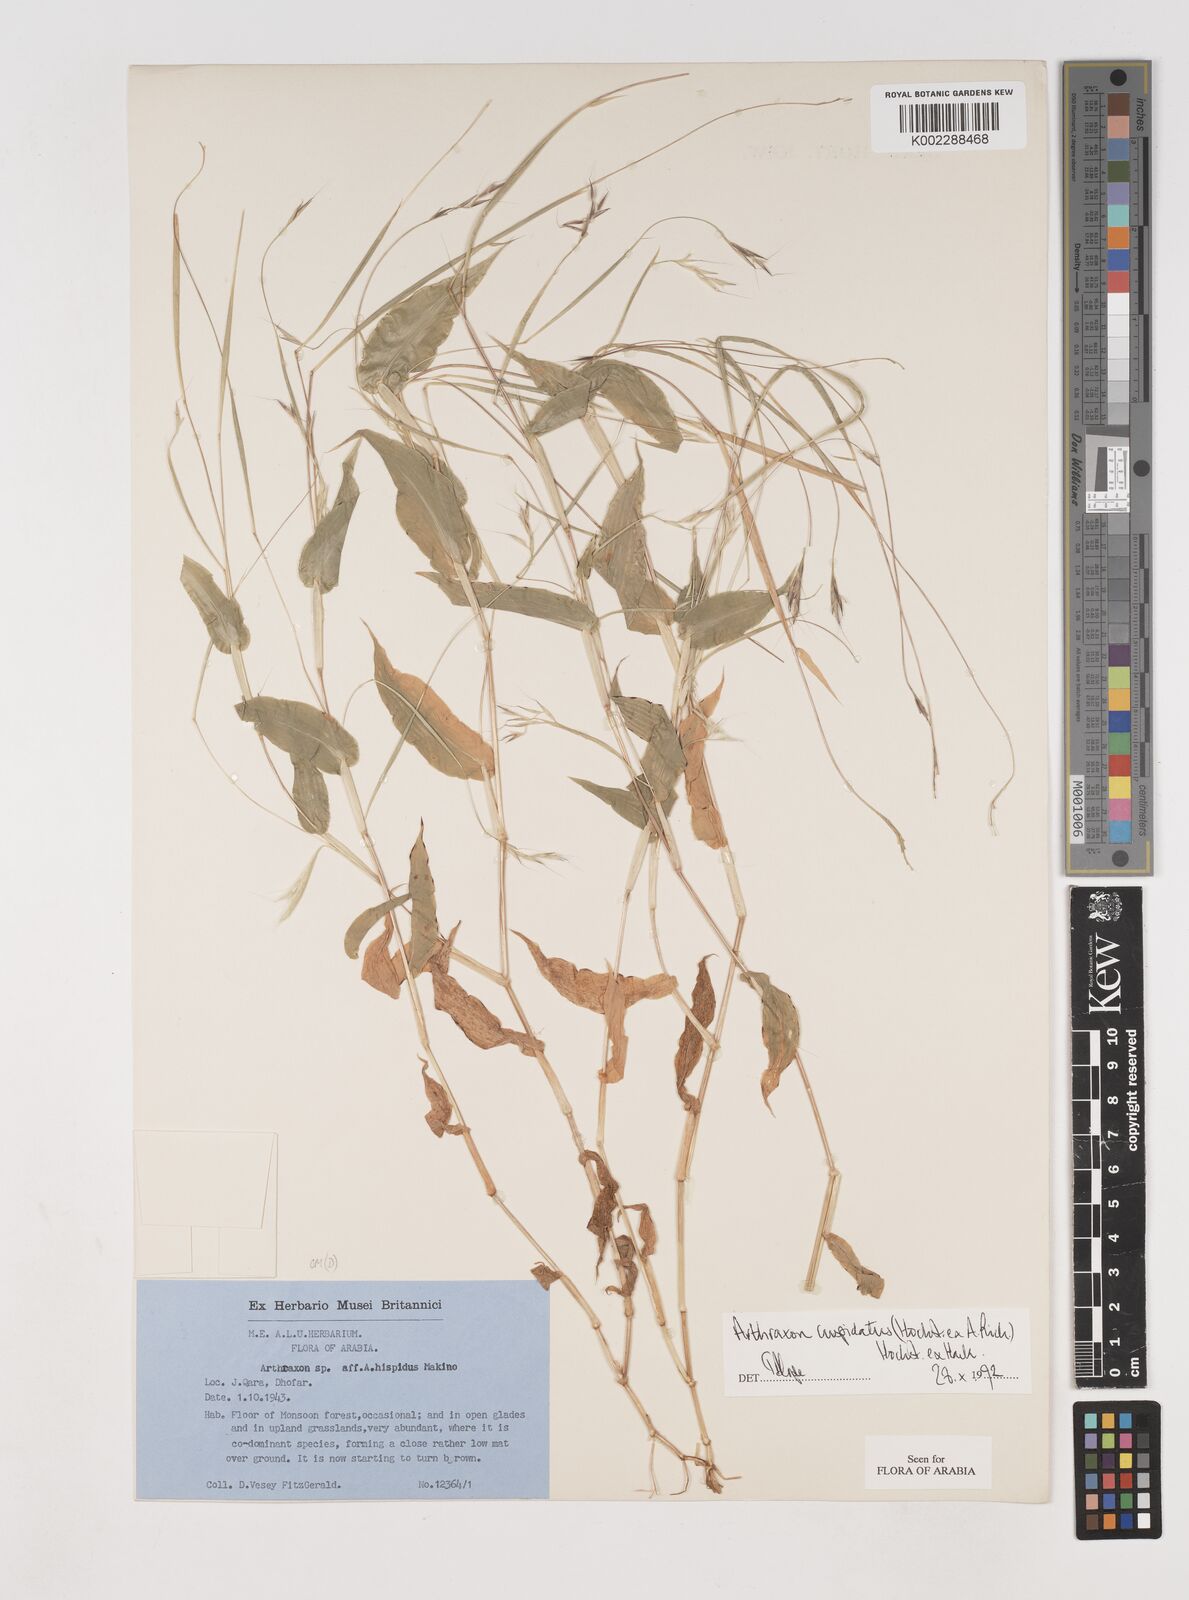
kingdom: Plantae
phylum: Tracheophyta
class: Liliopsida
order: Poales
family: Poaceae
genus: Arthraxon
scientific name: Arthraxon cuspidatus
